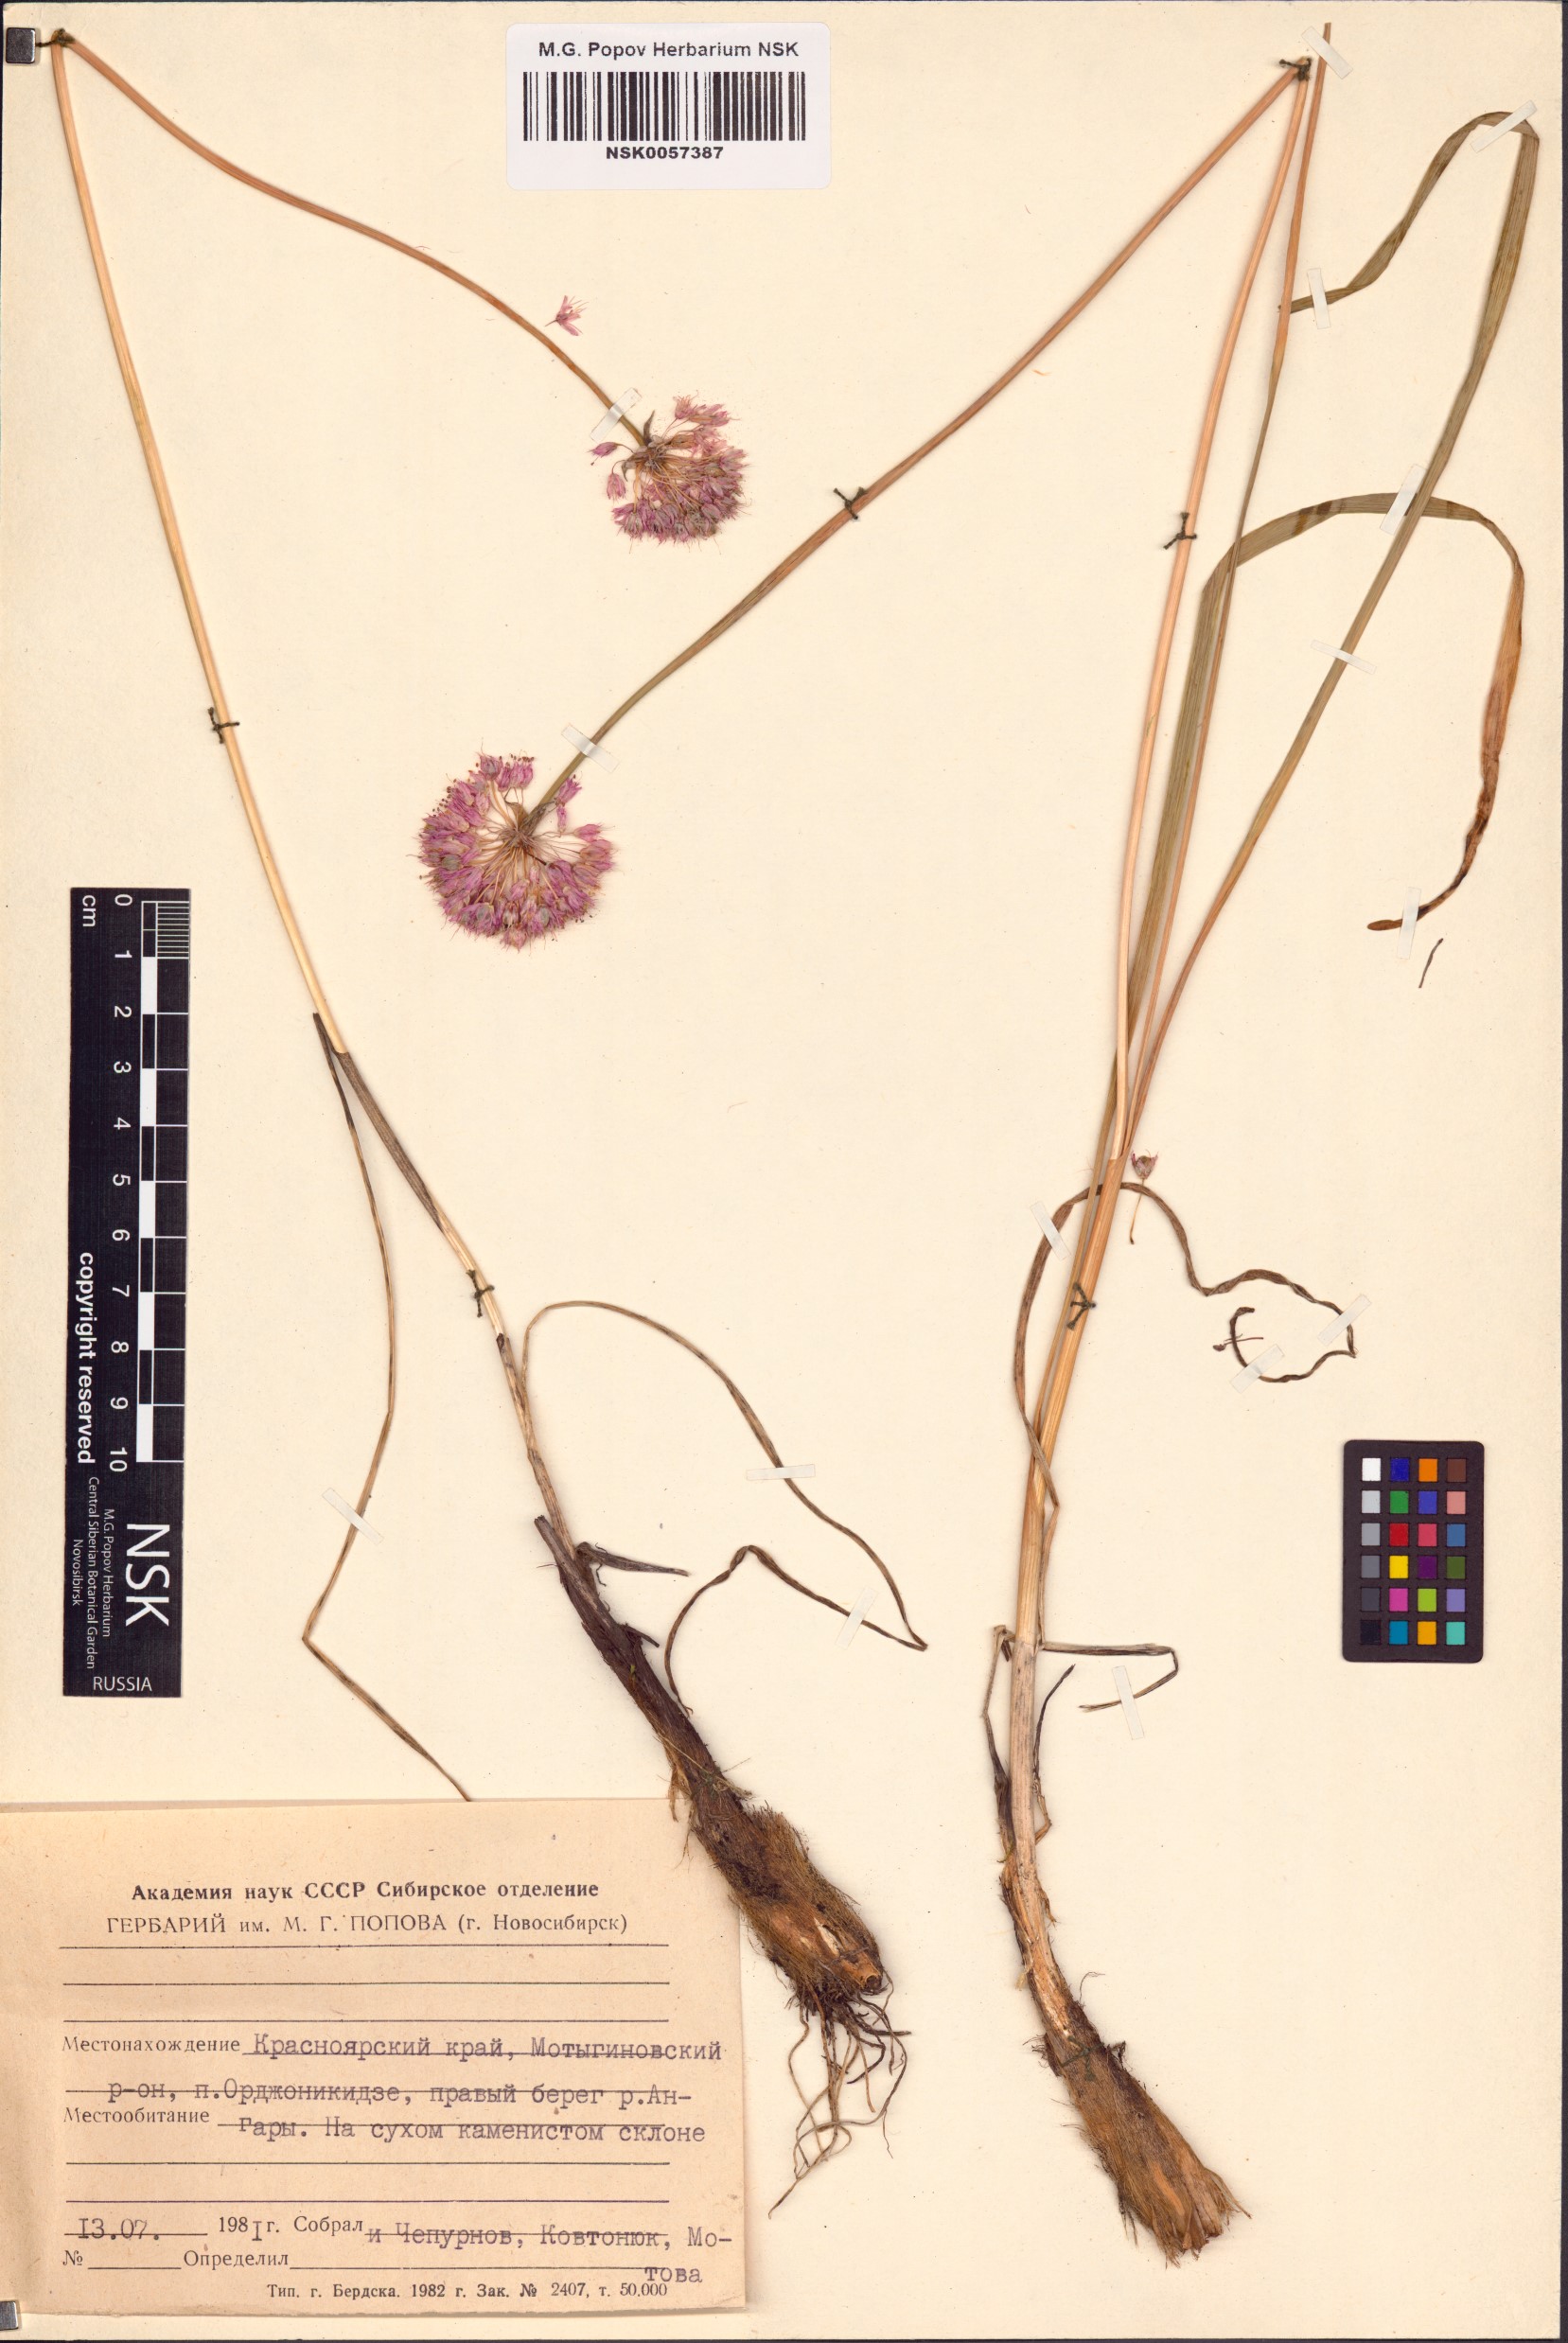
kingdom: Plantae
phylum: Tracheophyta
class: Liliopsida
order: Asparagales
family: Amaryllidaceae
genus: Allium
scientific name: Allium
